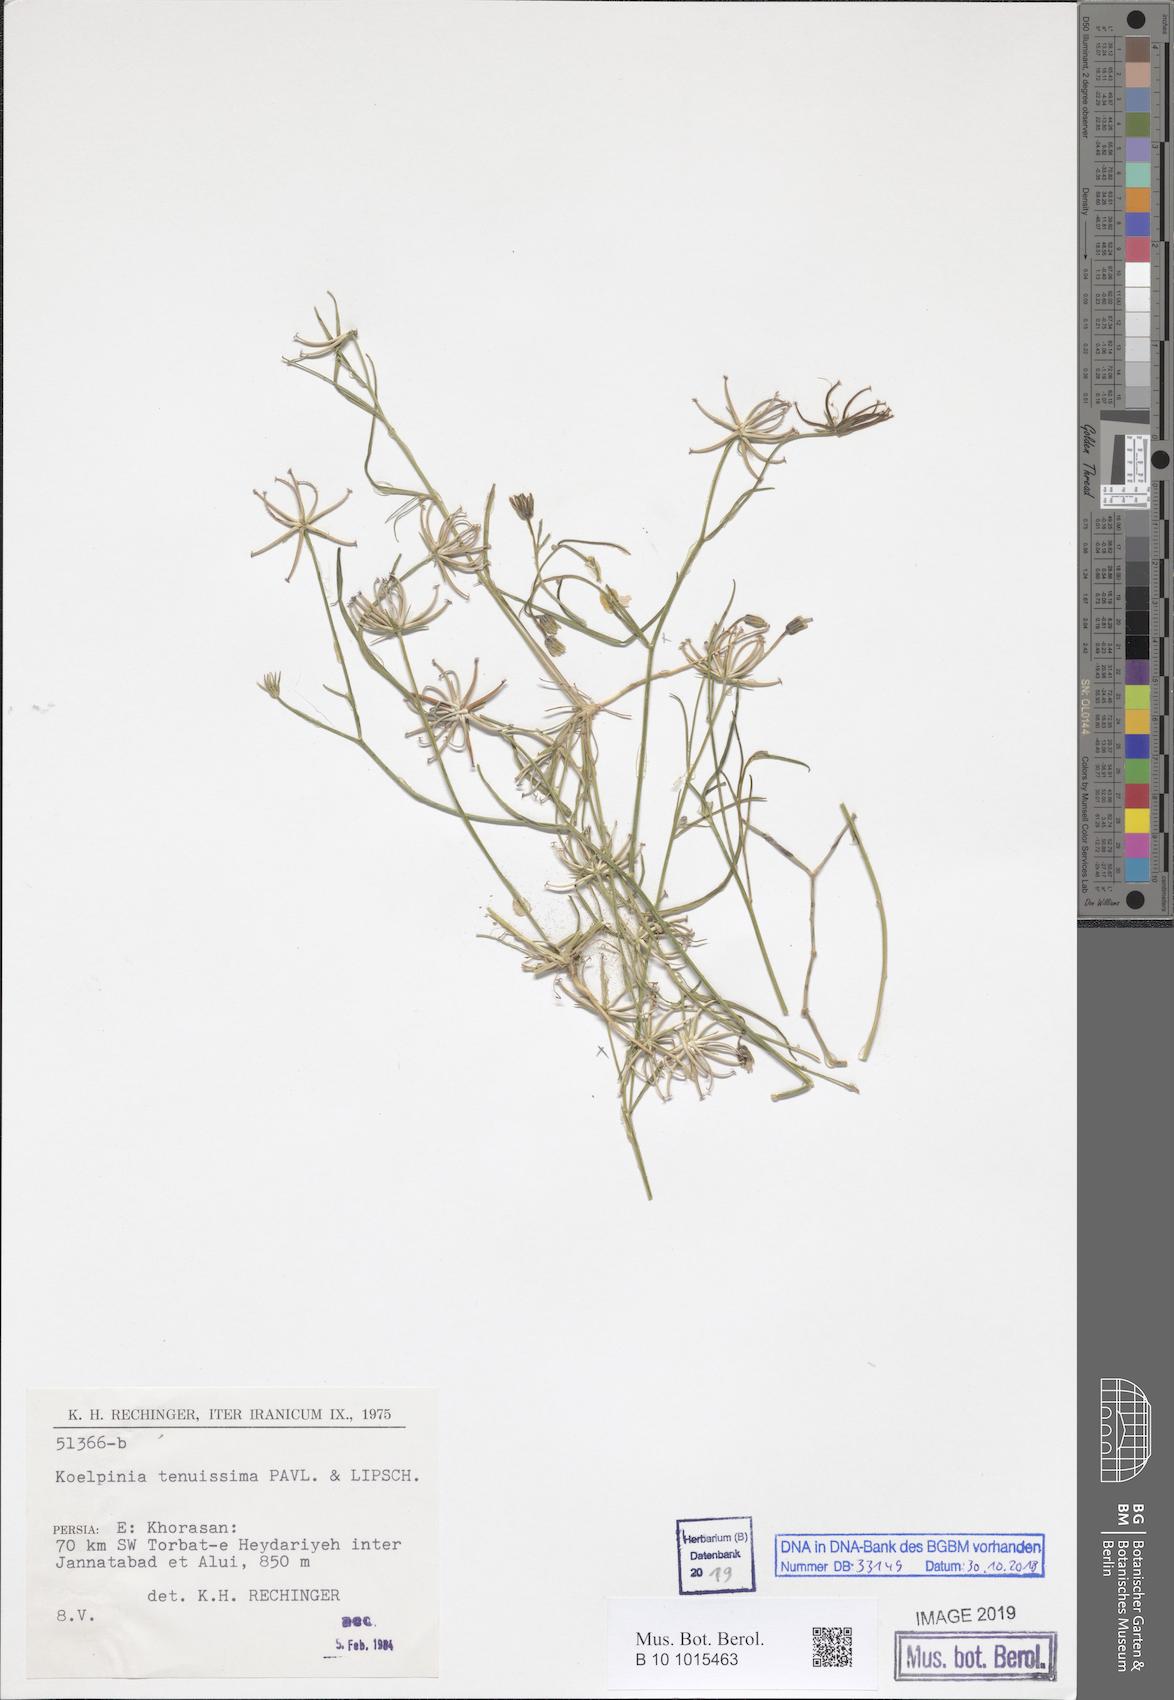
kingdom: Plantae
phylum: Tracheophyta
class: Magnoliopsida
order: Asterales
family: Asteraceae
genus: Koelpinia
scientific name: Koelpinia tenuissima
